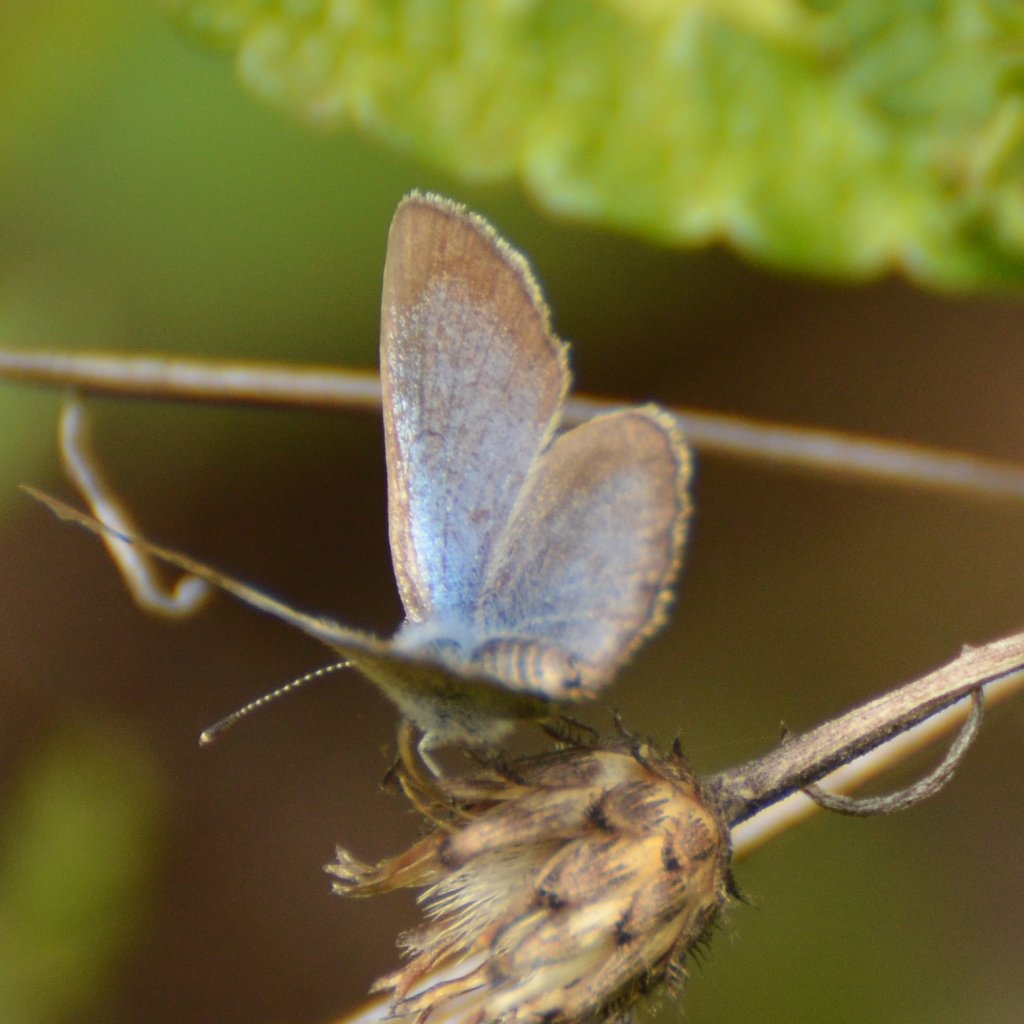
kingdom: Animalia
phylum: Arthropoda
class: Insecta
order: Lepidoptera
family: Lycaenidae
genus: Glaucopsyche
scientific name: Glaucopsyche lygdamus
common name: Silvery Blue
